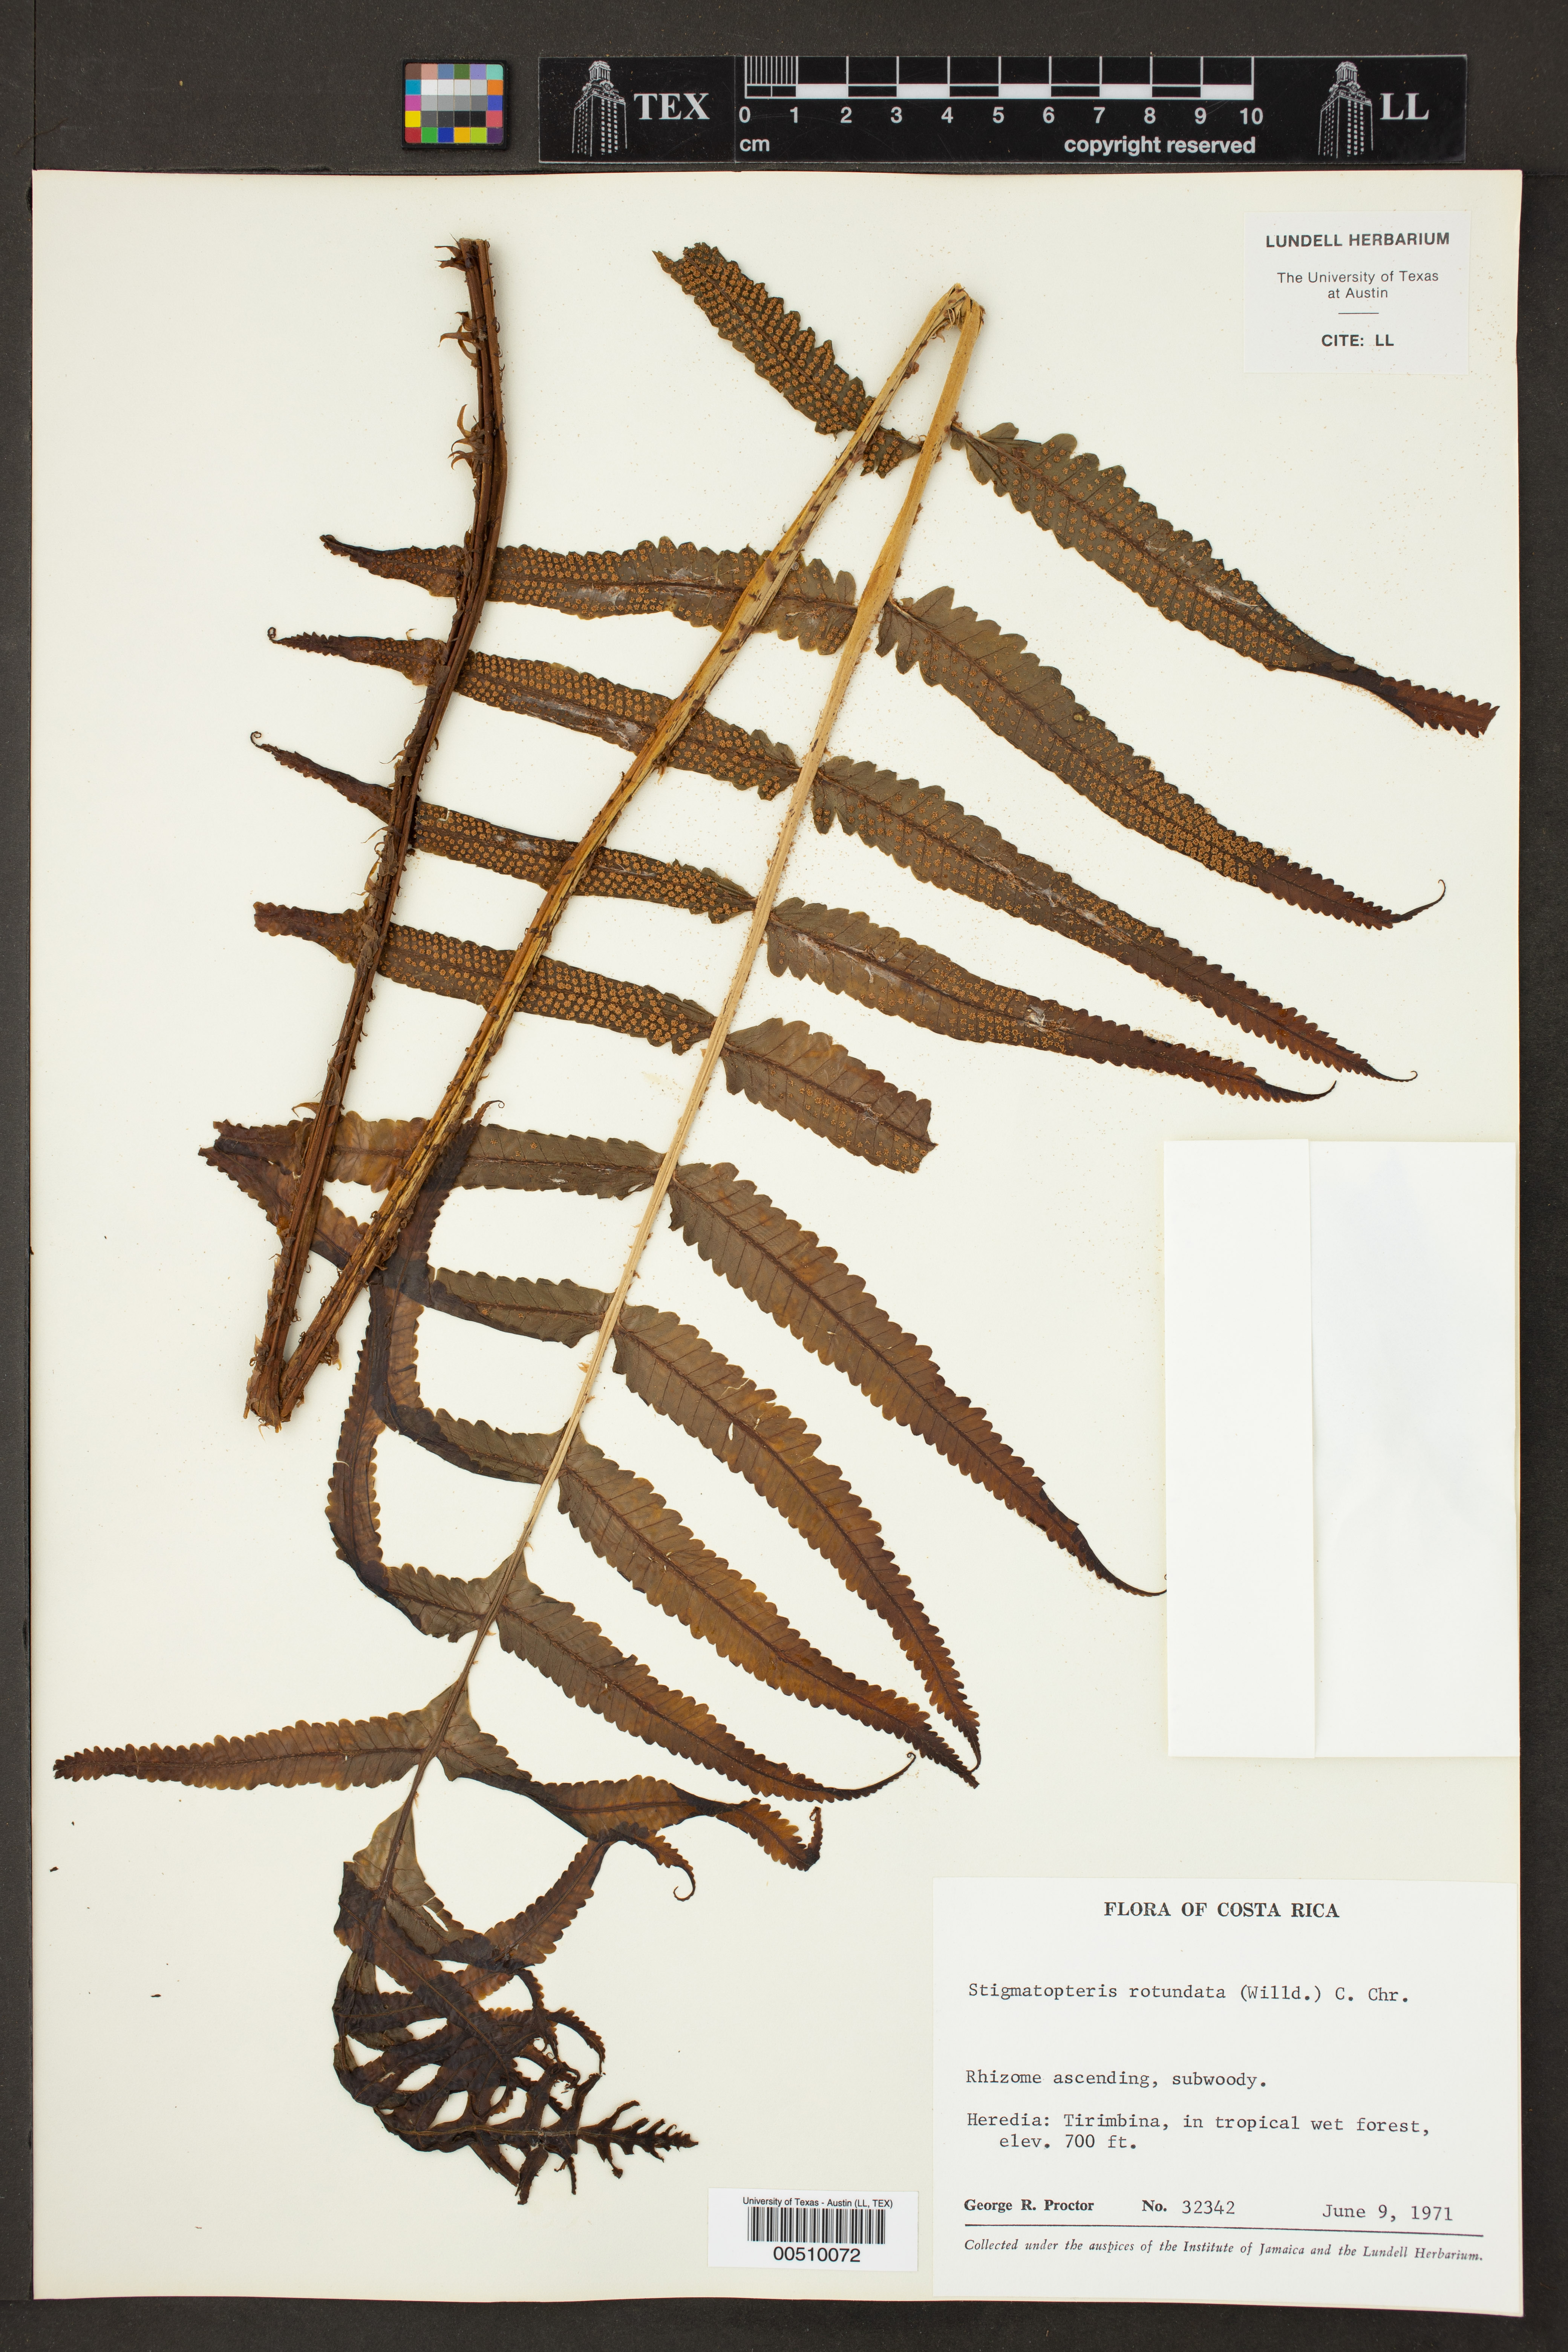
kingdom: Plantae
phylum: Tracheophyta
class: Polypodiopsida
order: Polypodiales
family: Dryopteridaceae
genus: Stigmatopteris
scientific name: Stigmatopteris rotundata
